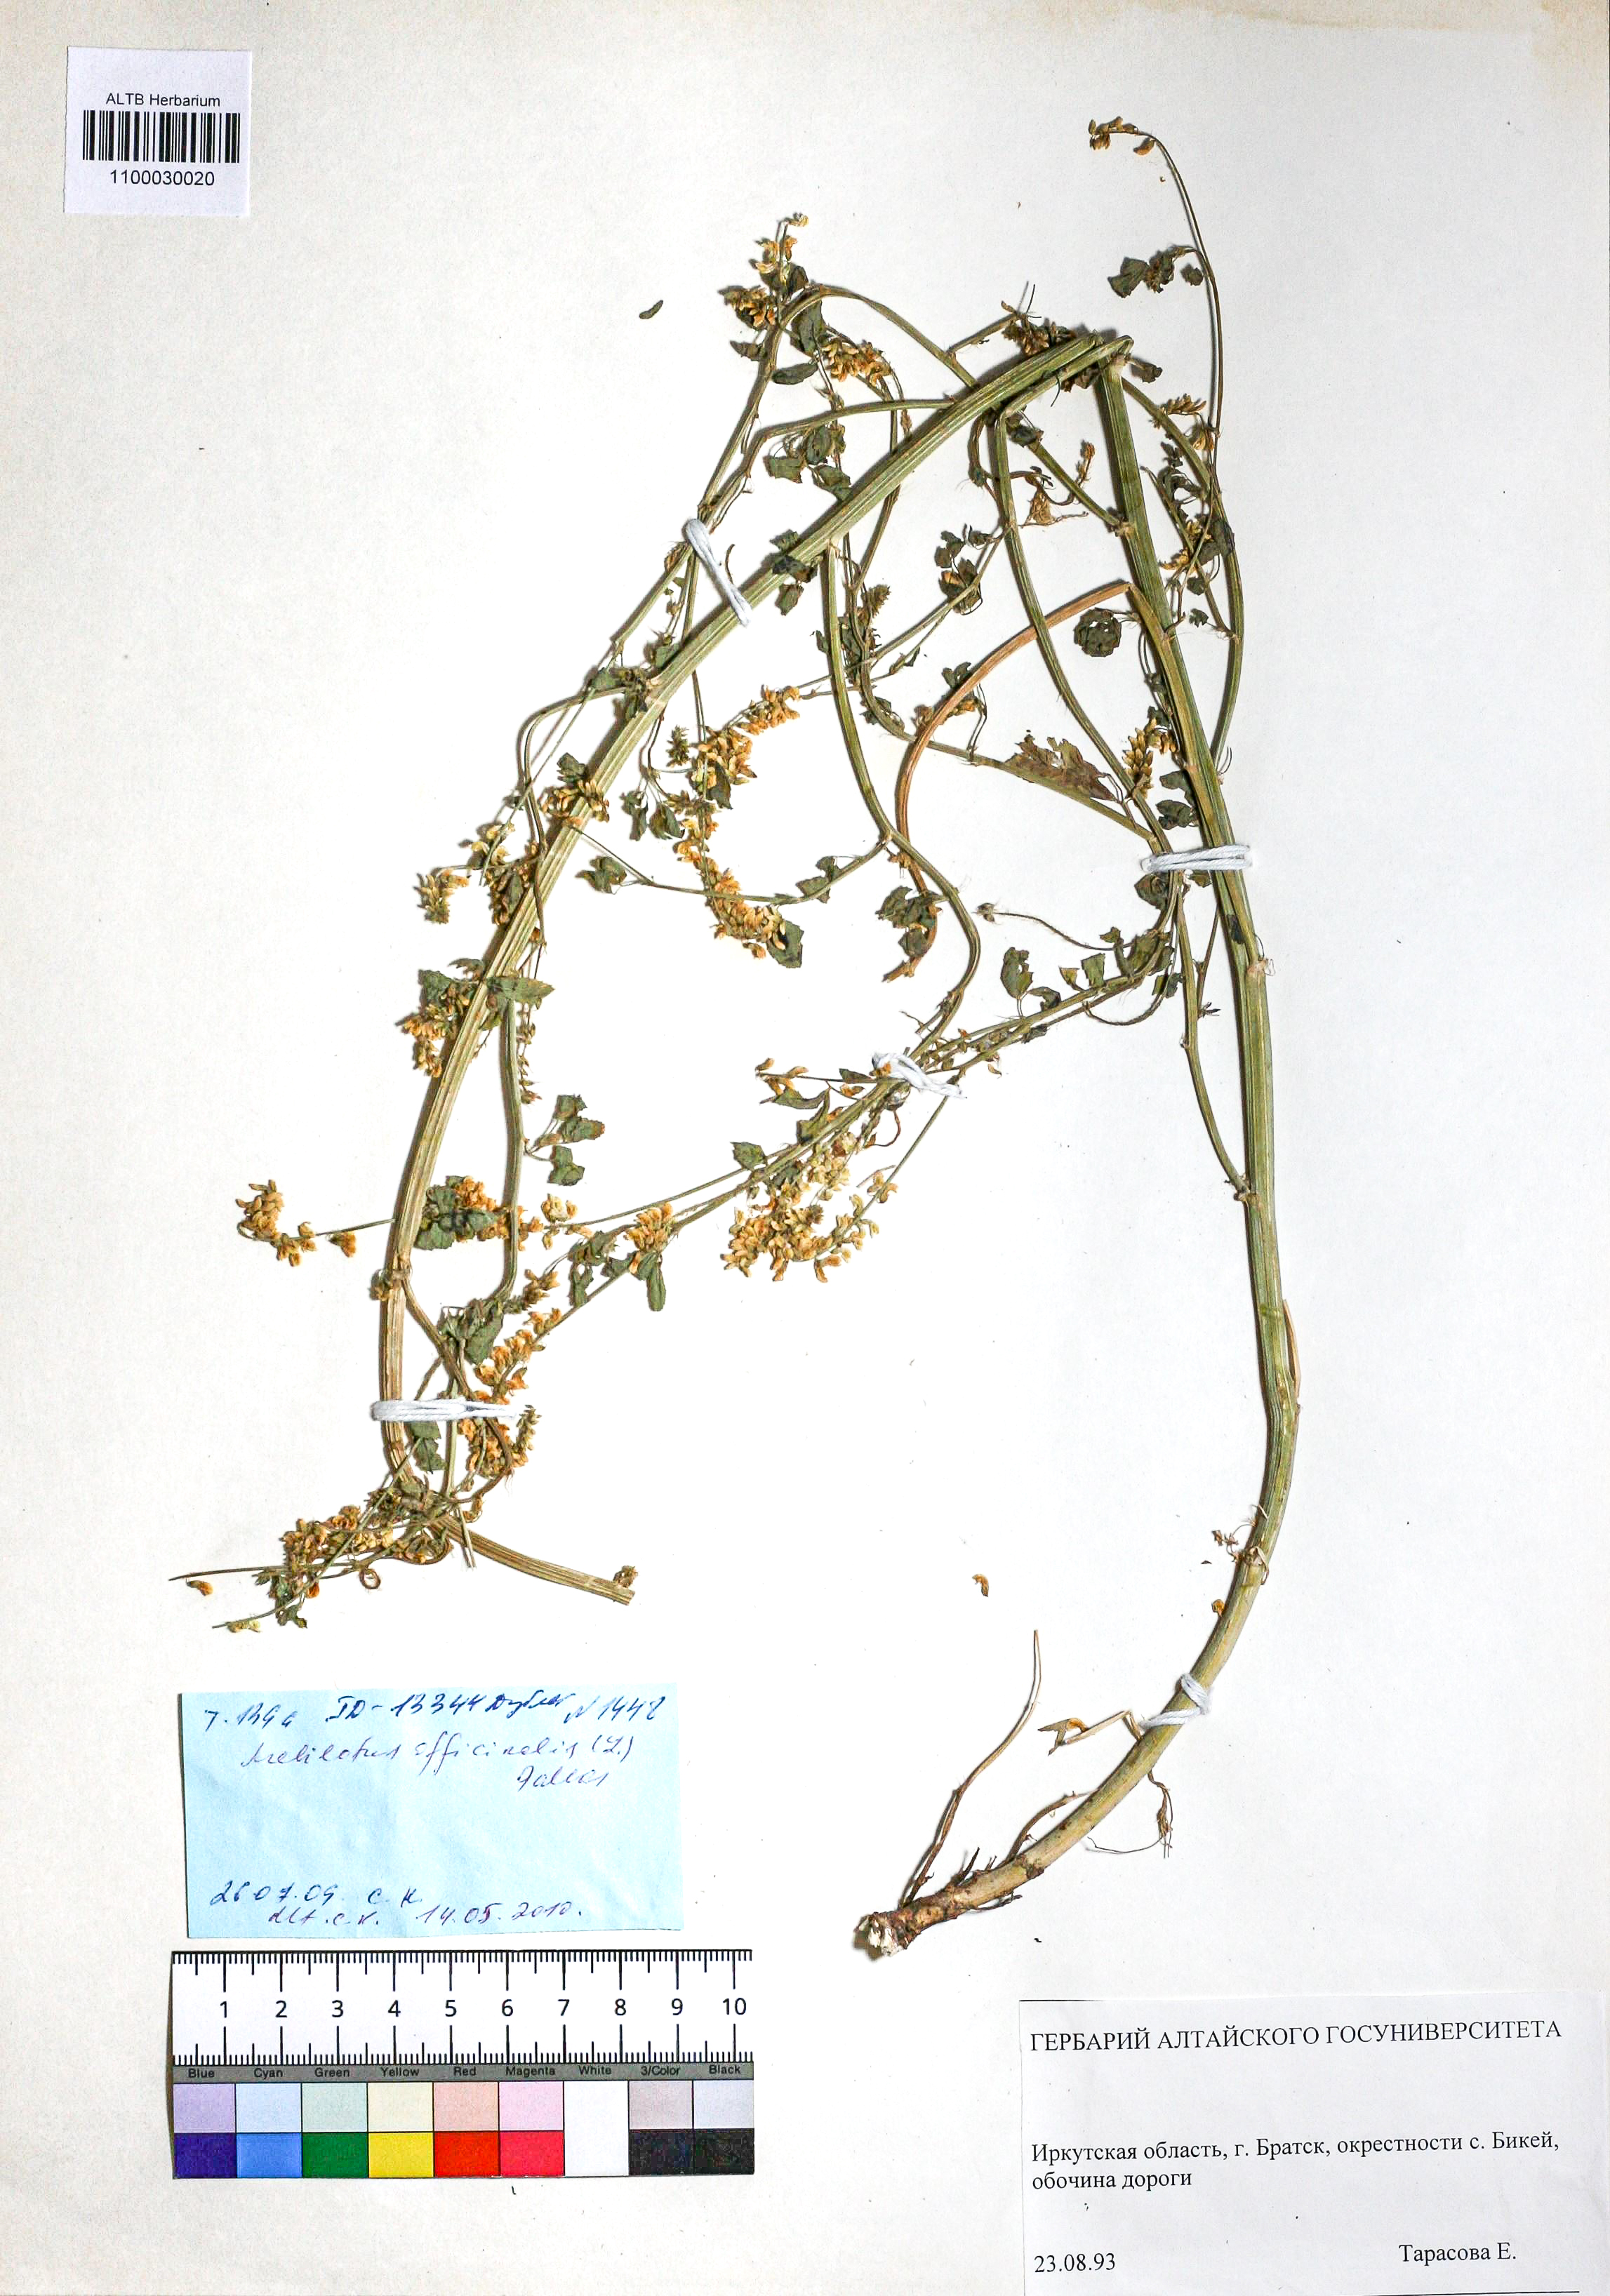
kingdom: Plantae
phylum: Tracheophyta
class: Magnoliopsida
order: Fabales
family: Fabaceae
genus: Melilotus
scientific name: Melilotus officinalis
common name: Sweetclover
